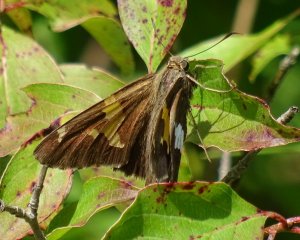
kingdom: Animalia
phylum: Arthropoda
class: Insecta
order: Lepidoptera
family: Hesperiidae
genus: Epargyreus
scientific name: Epargyreus clarus
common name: Silver-spotted Skipper
